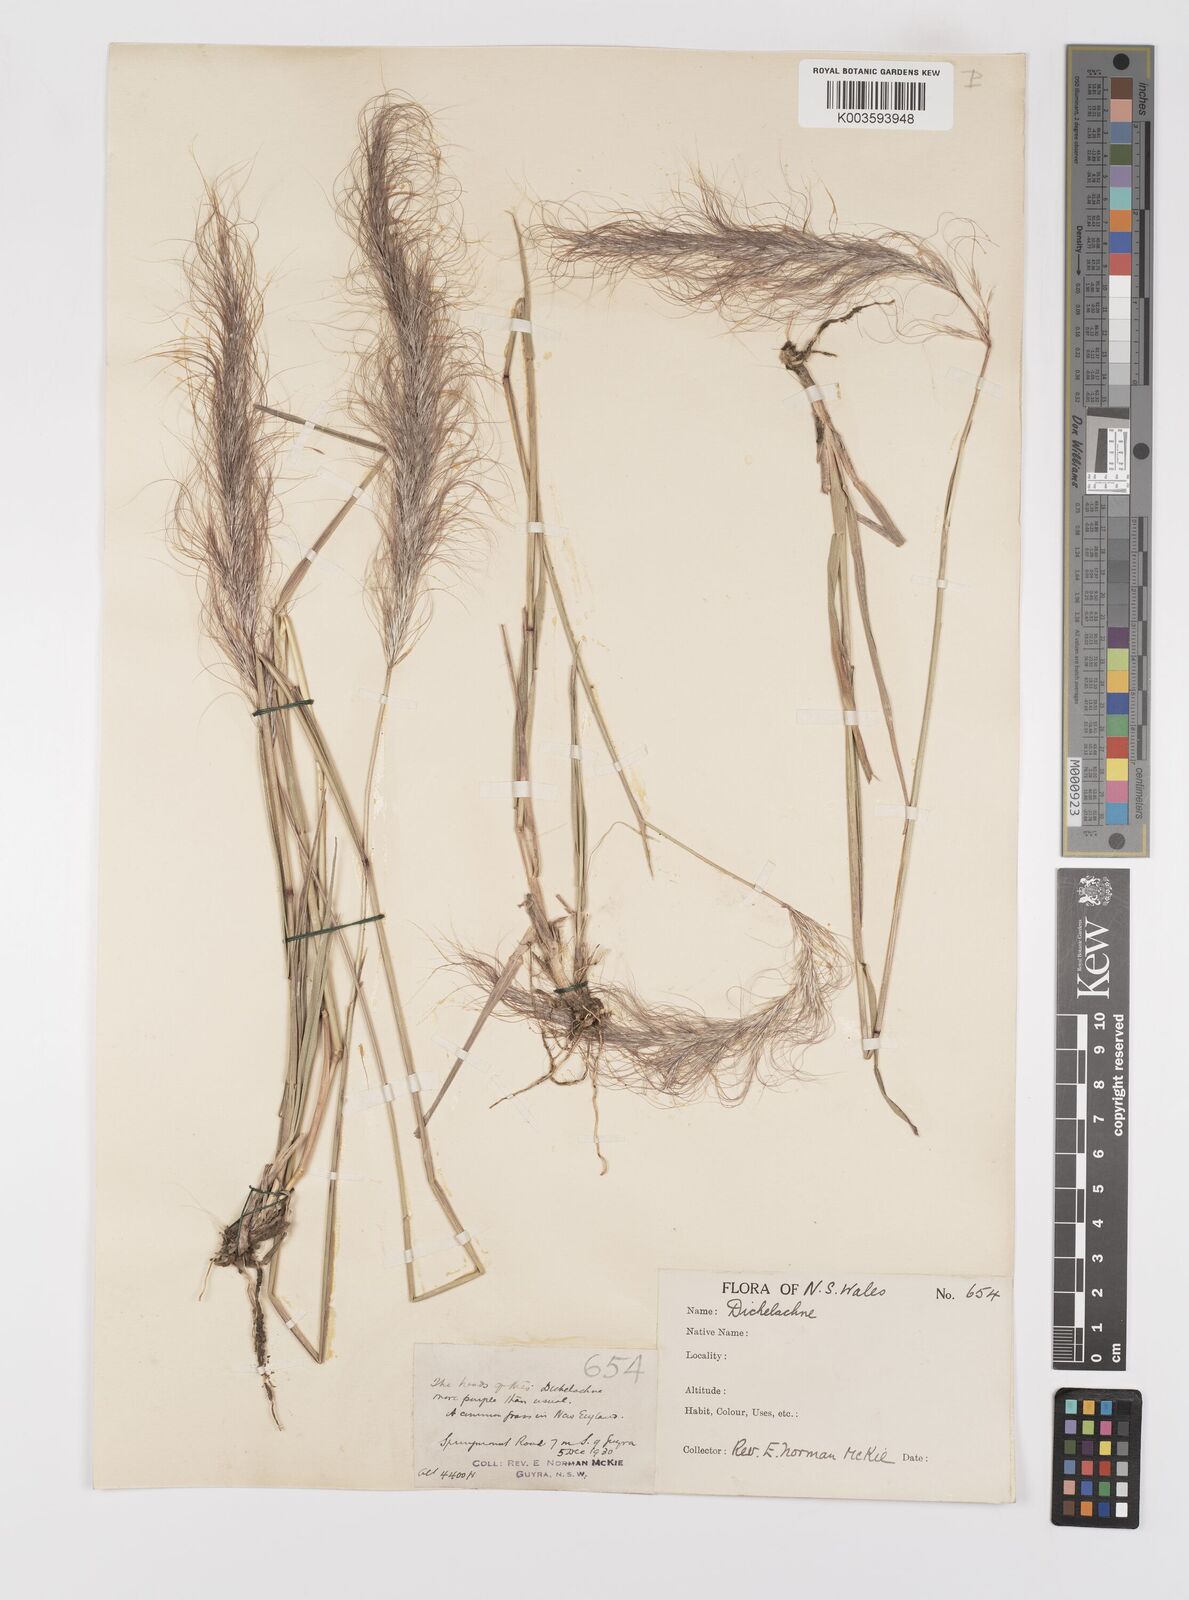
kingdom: Plantae
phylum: Tracheophyta
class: Liliopsida
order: Poales
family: Poaceae
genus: Dichelachne
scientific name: Dichelachne
